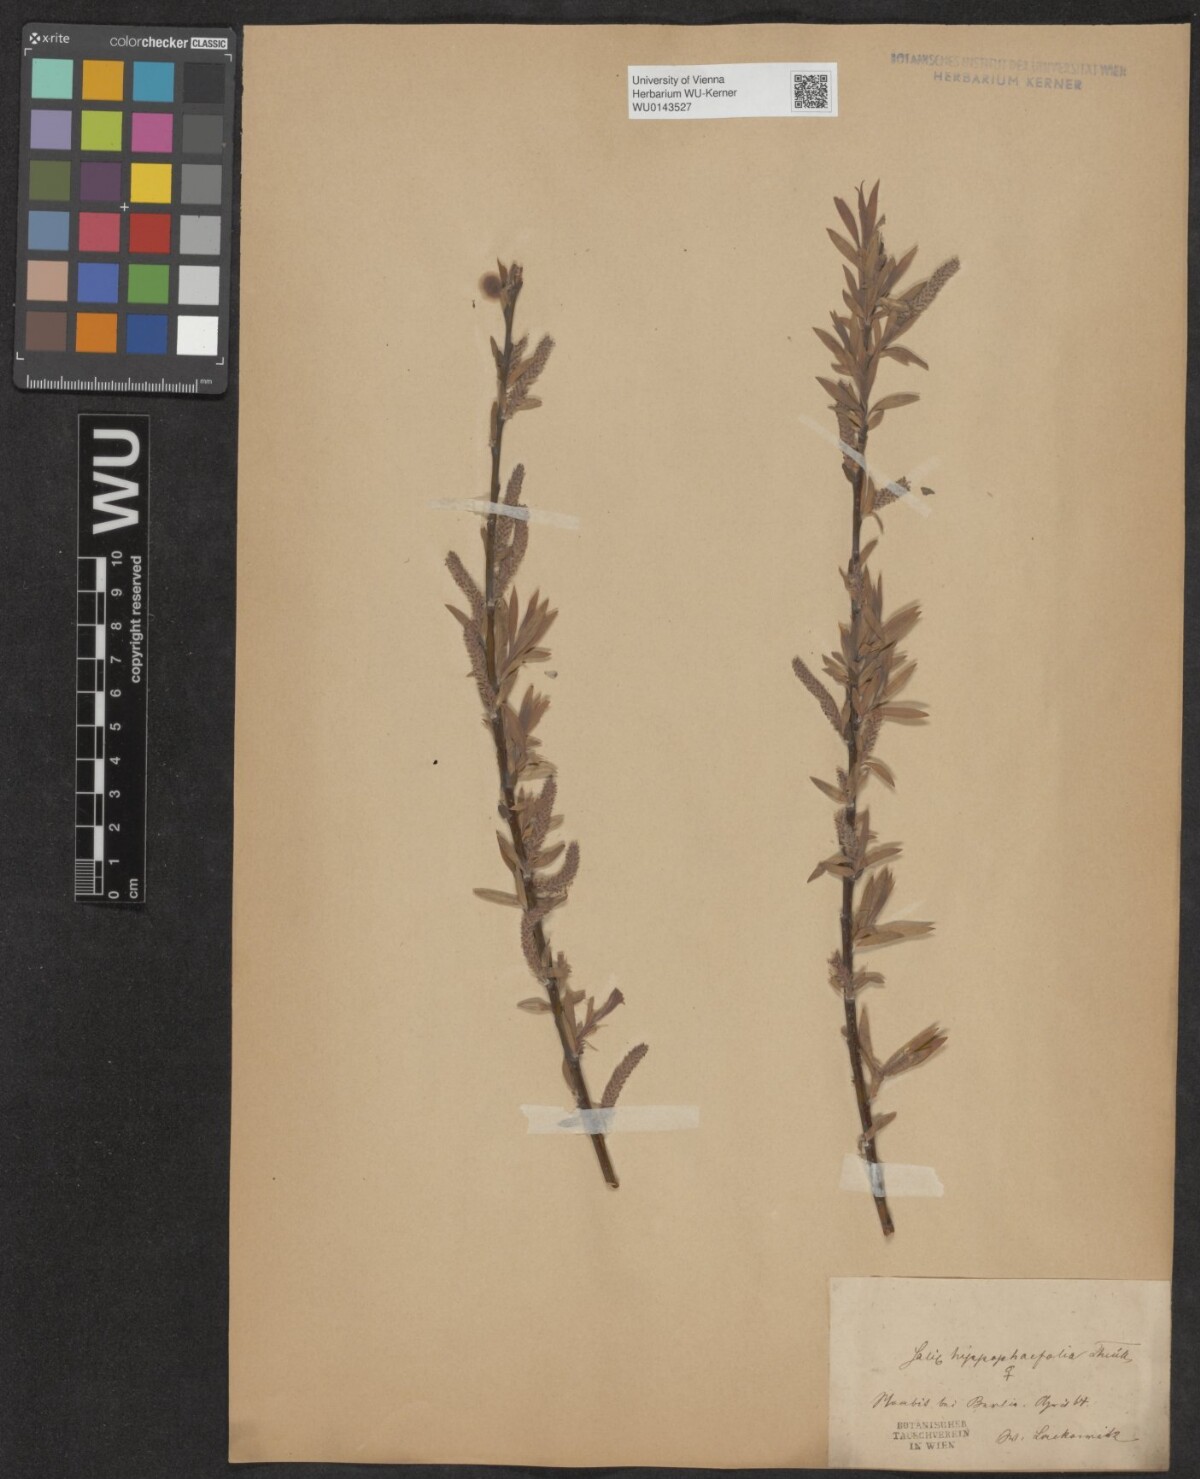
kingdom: Plantae
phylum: Tracheophyta
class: Magnoliopsida
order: Malpighiales
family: Salicaceae
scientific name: Salicaceae
